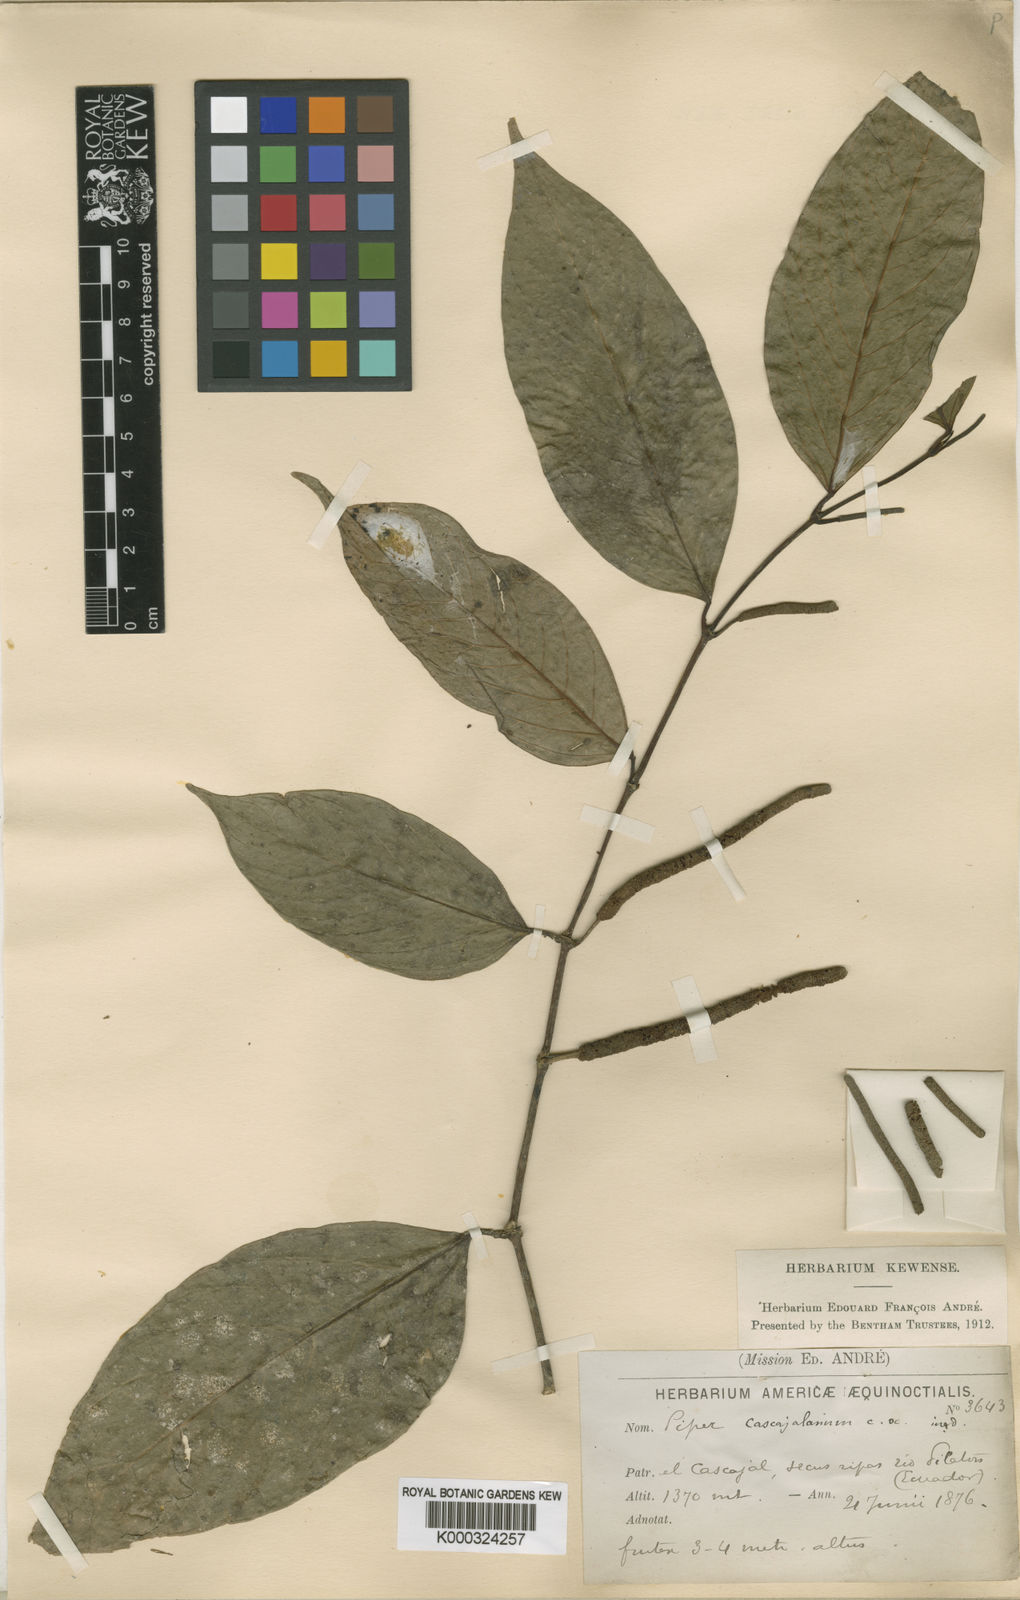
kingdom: Plantae
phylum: Tracheophyta
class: Magnoliopsida
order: Piperales
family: Piperaceae
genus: Piper
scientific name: Piper glanduligerum
